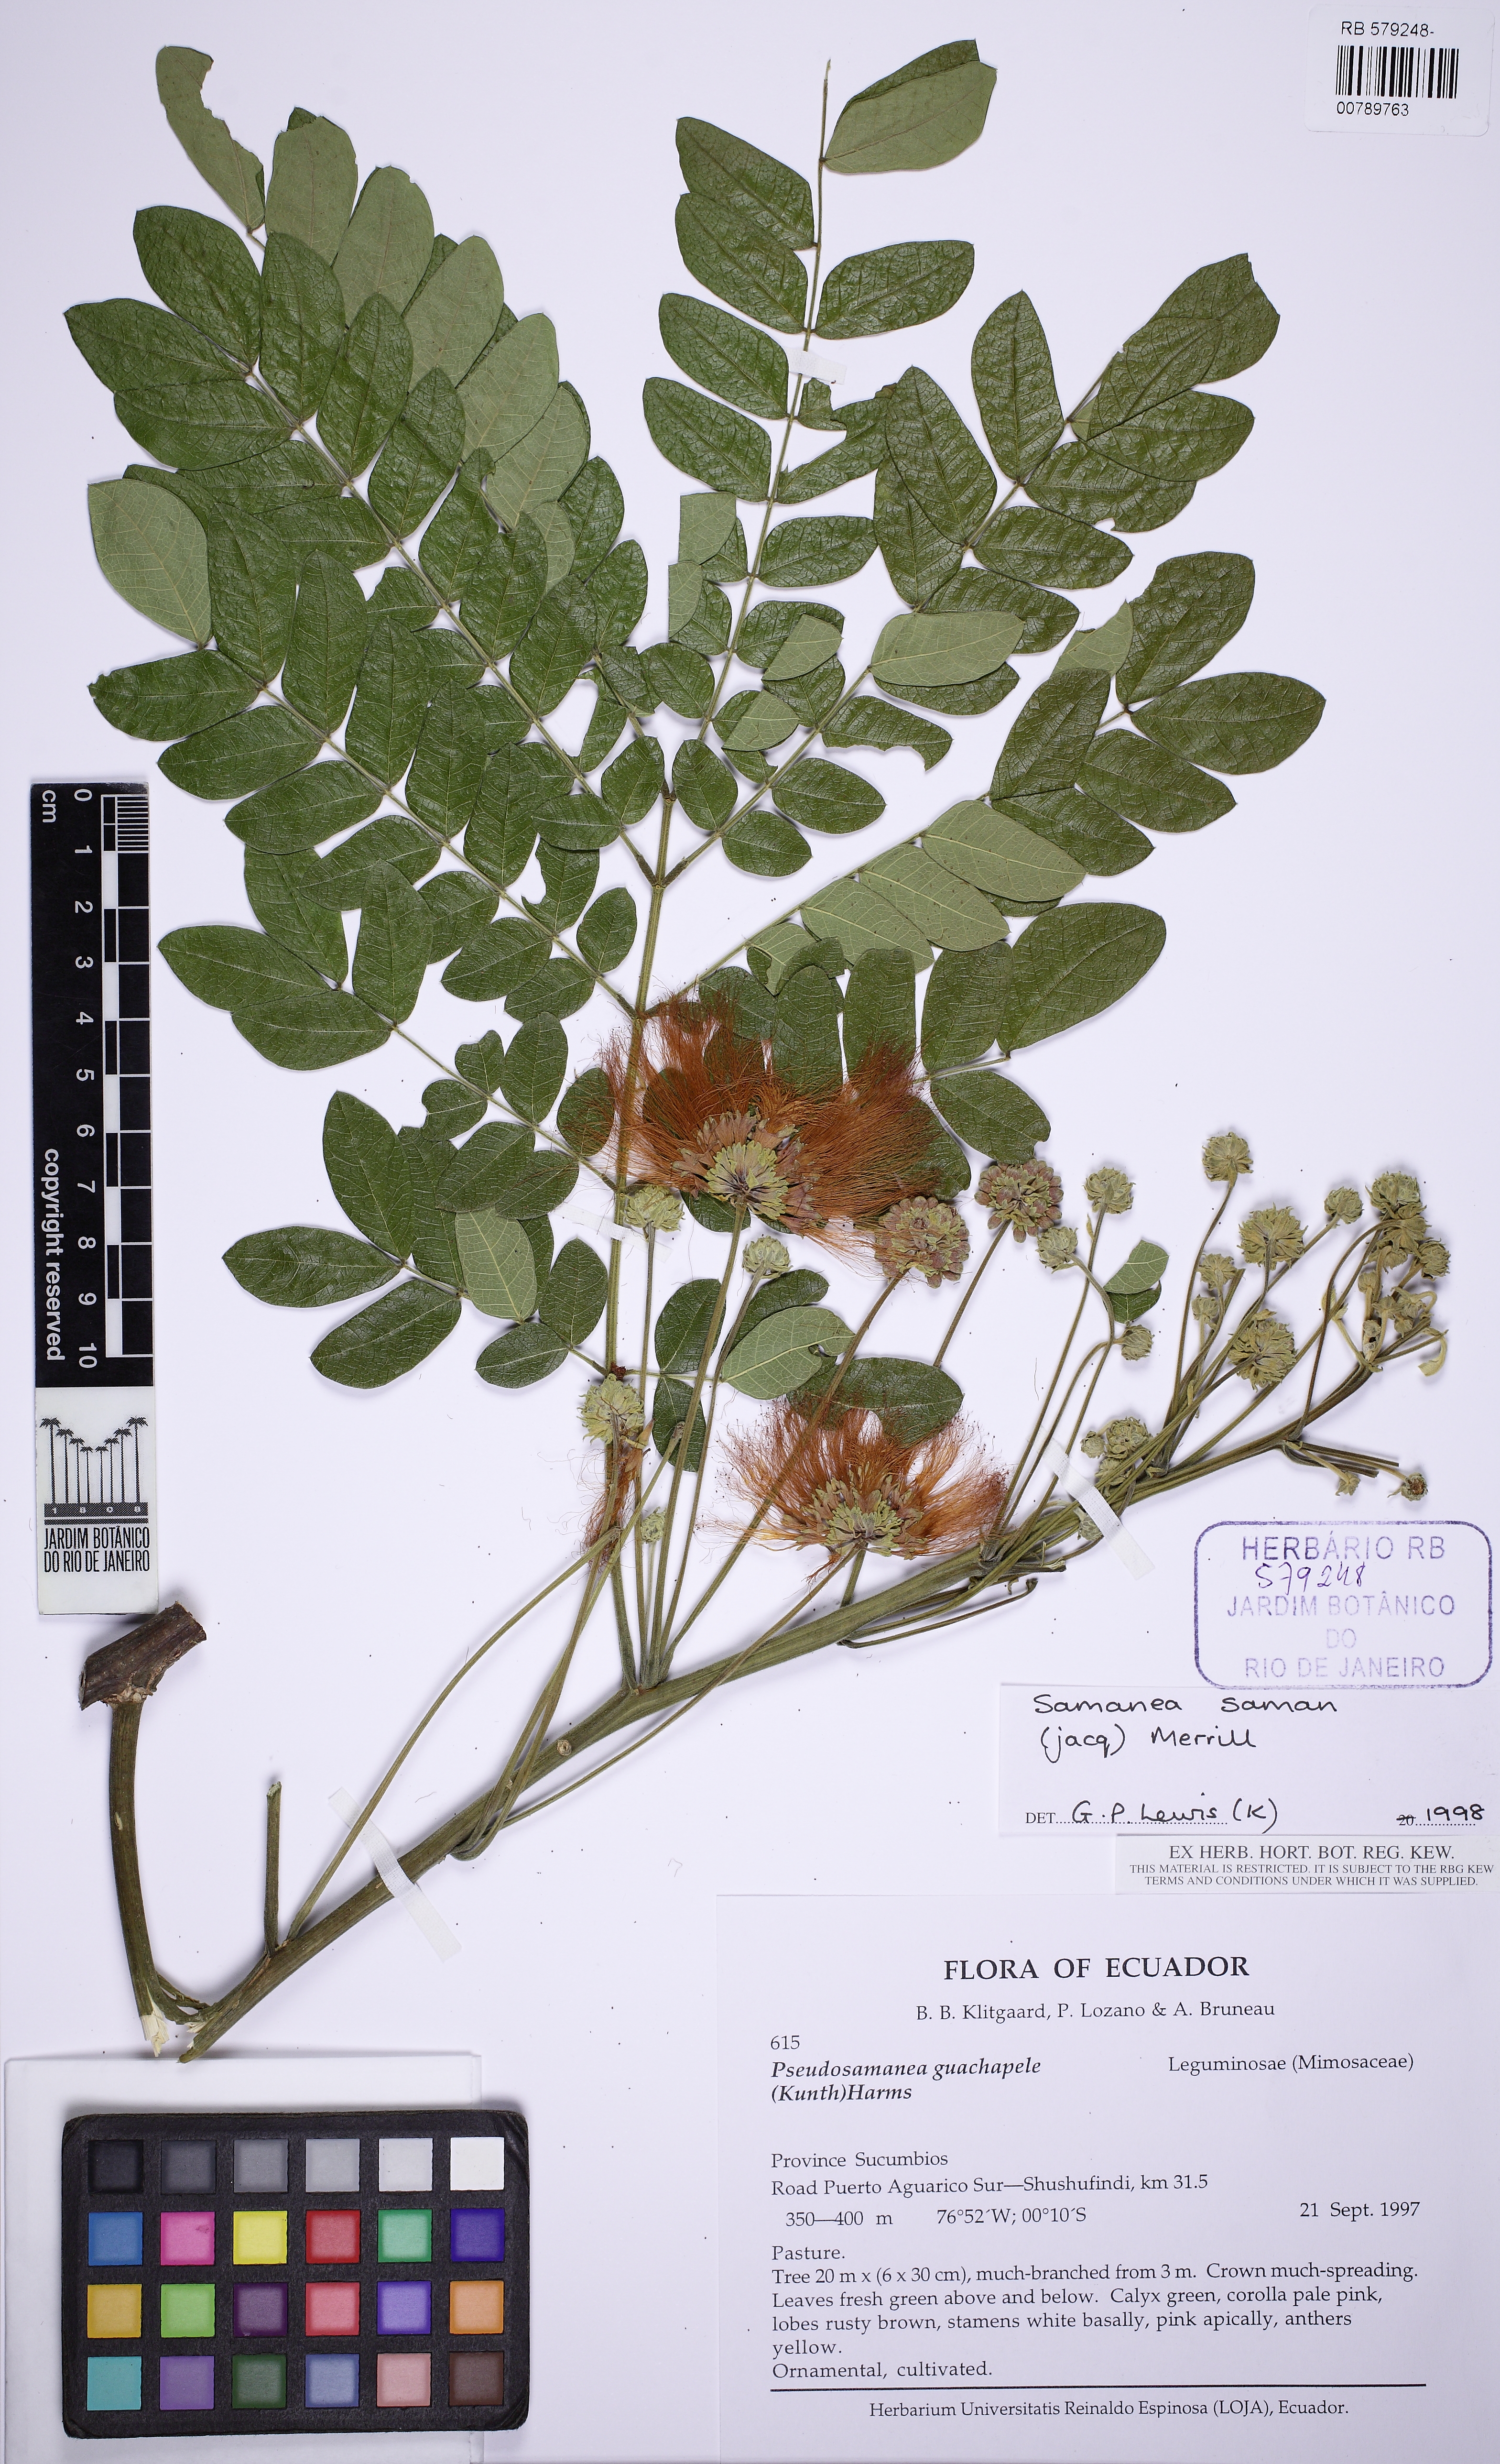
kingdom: Plantae
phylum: Tracheophyta
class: Magnoliopsida
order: Fabales
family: Fabaceae
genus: Samanea
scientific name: Samanea saman
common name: Raintree
